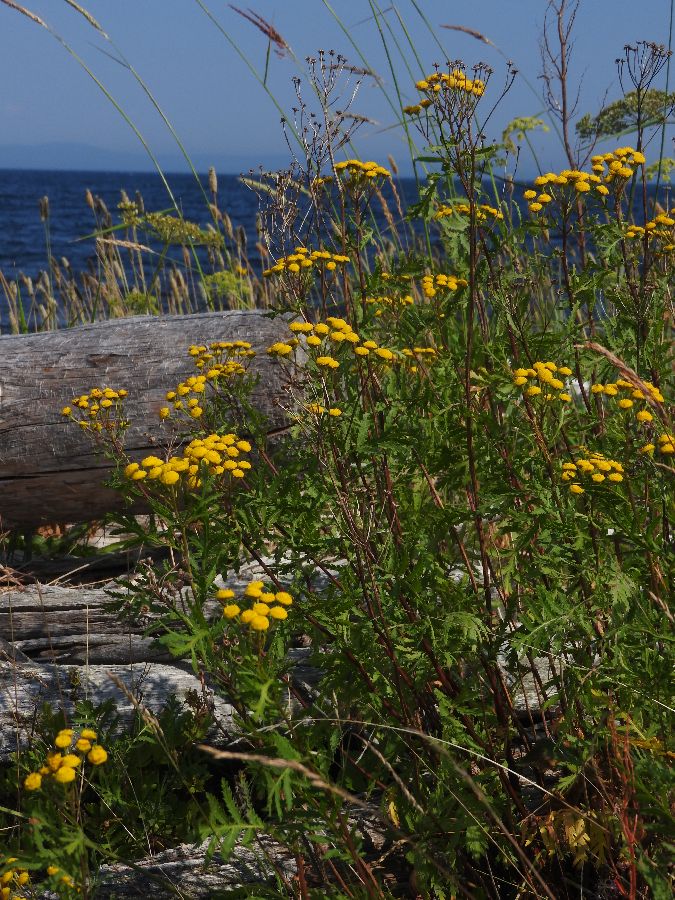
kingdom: Plantae
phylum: Tracheophyta
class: Magnoliopsida
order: Asterales
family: Asteraceae
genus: Tanacetum
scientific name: Tanacetum vulgare
